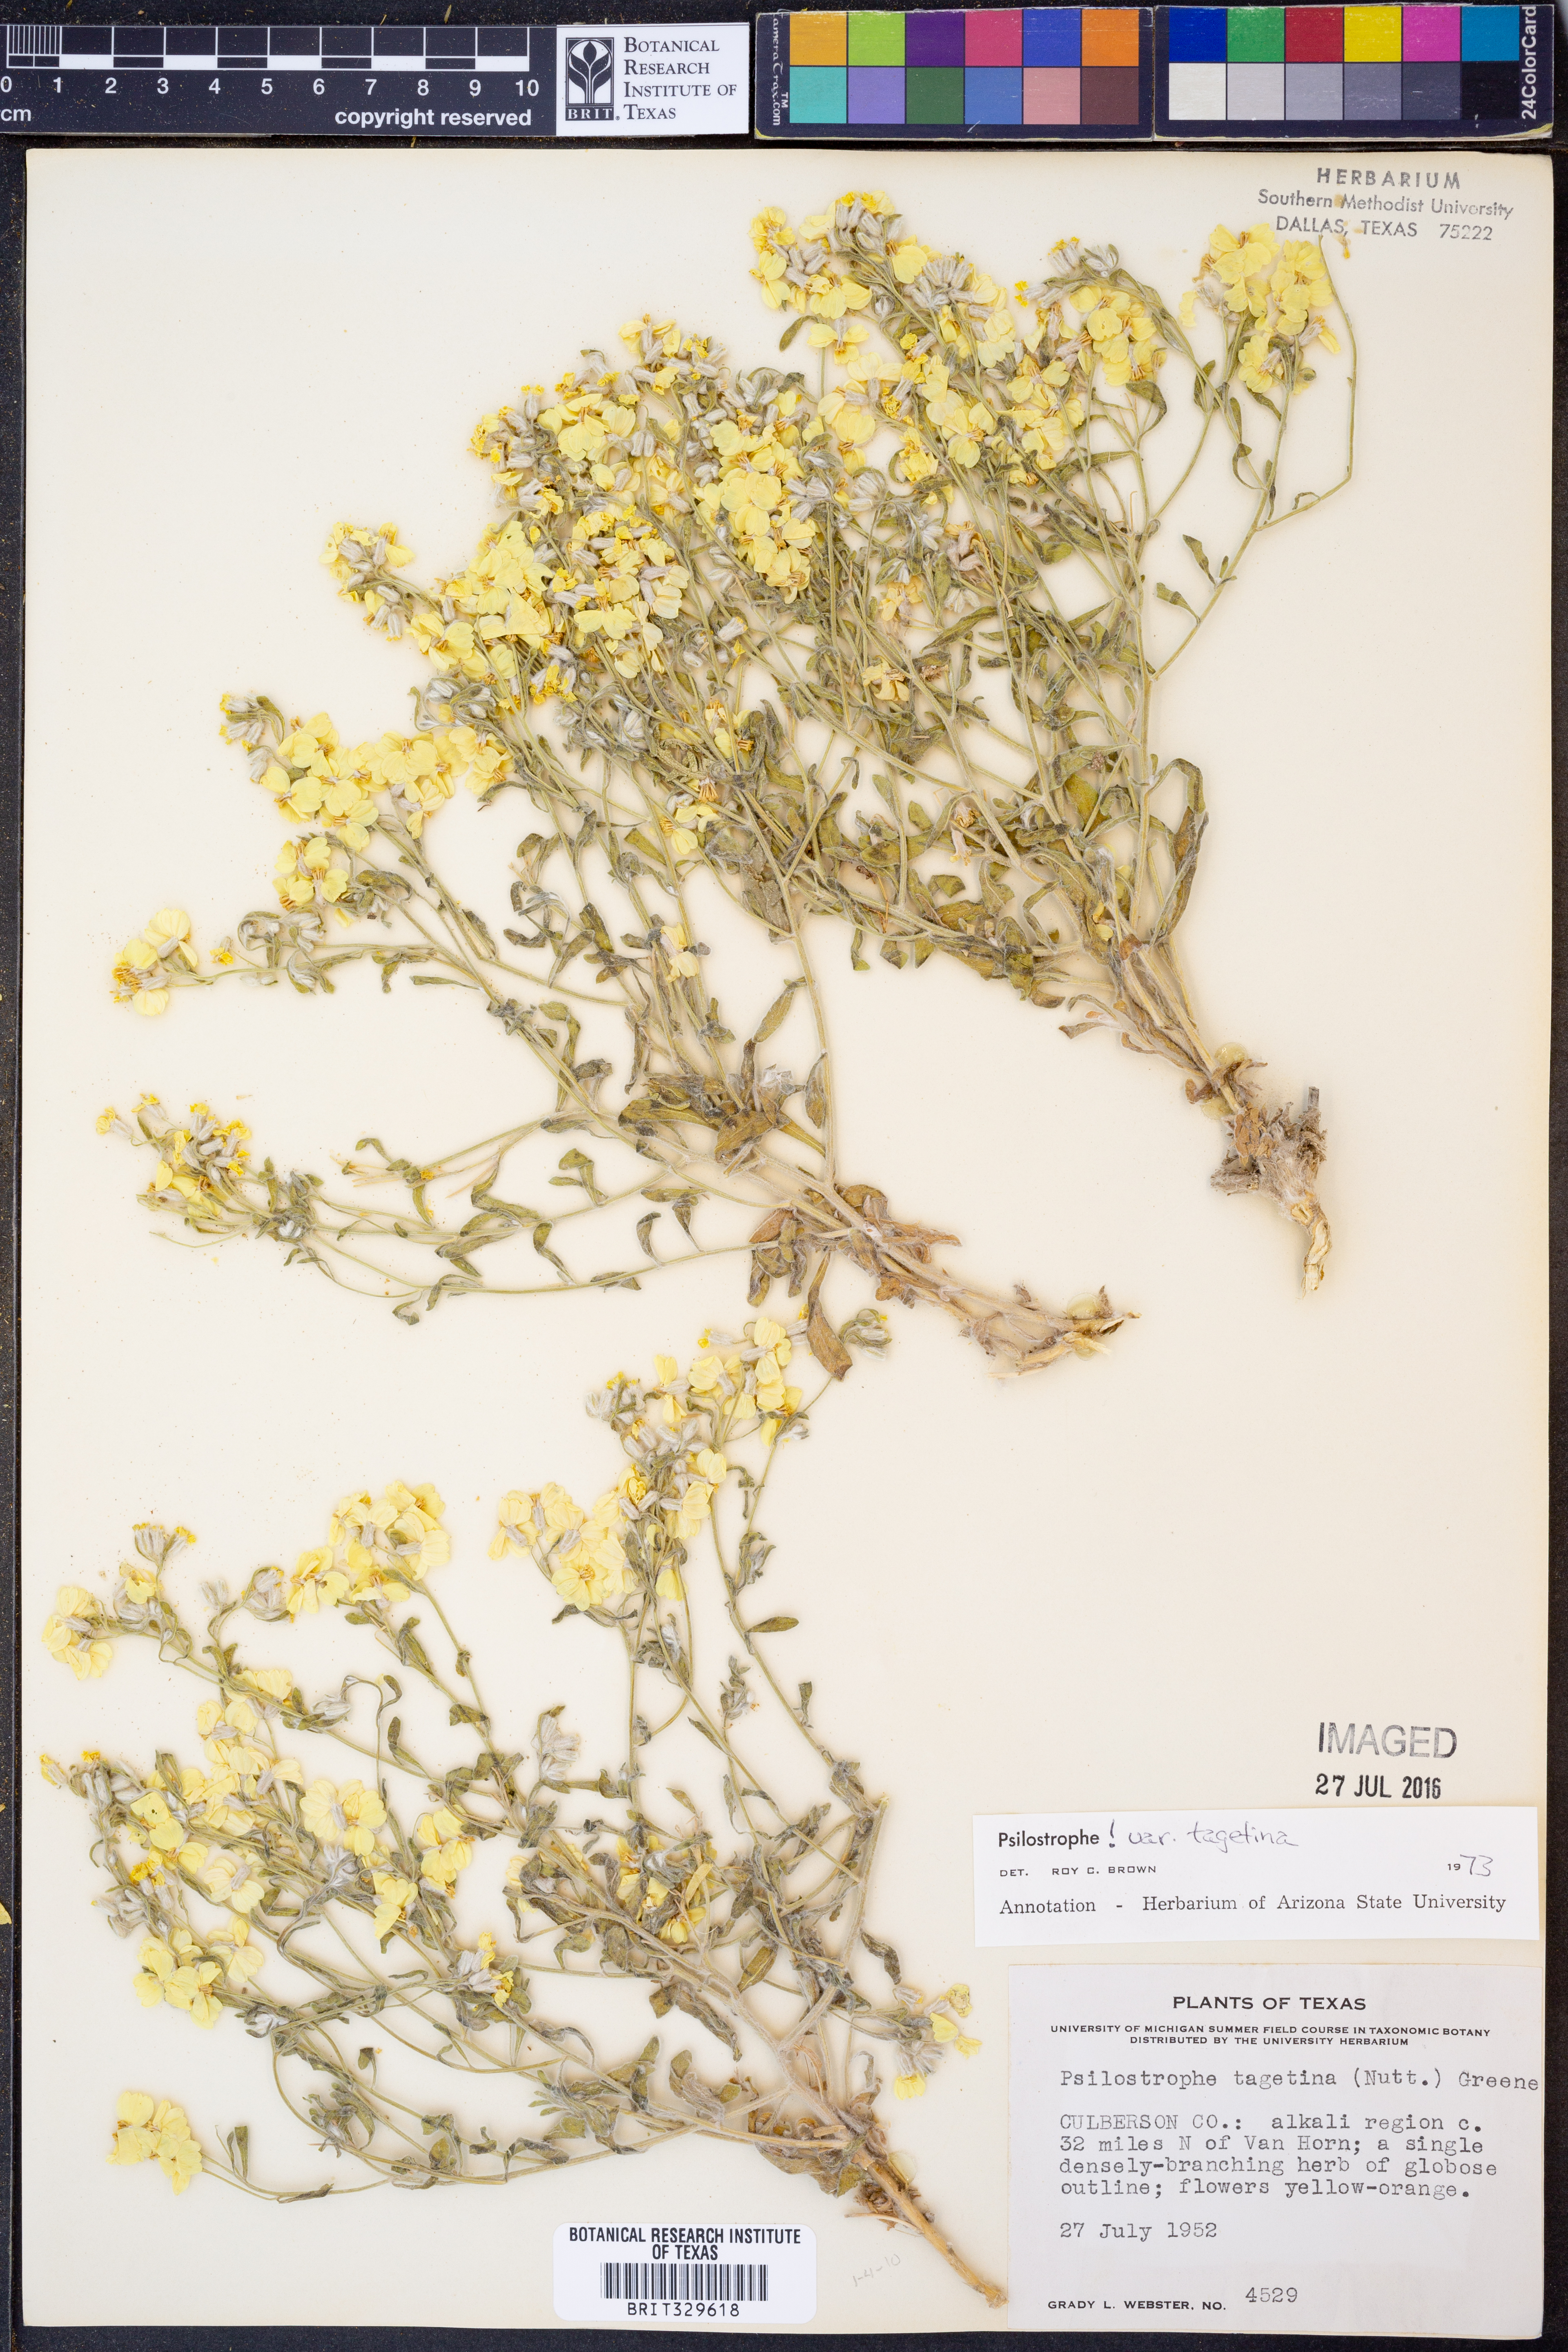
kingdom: Plantae
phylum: Tracheophyta
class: Magnoliopsida
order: Asterales
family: Asteraceae
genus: Psilostrophe
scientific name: Psilostrophe tagetina
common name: Marigold paper-flower
